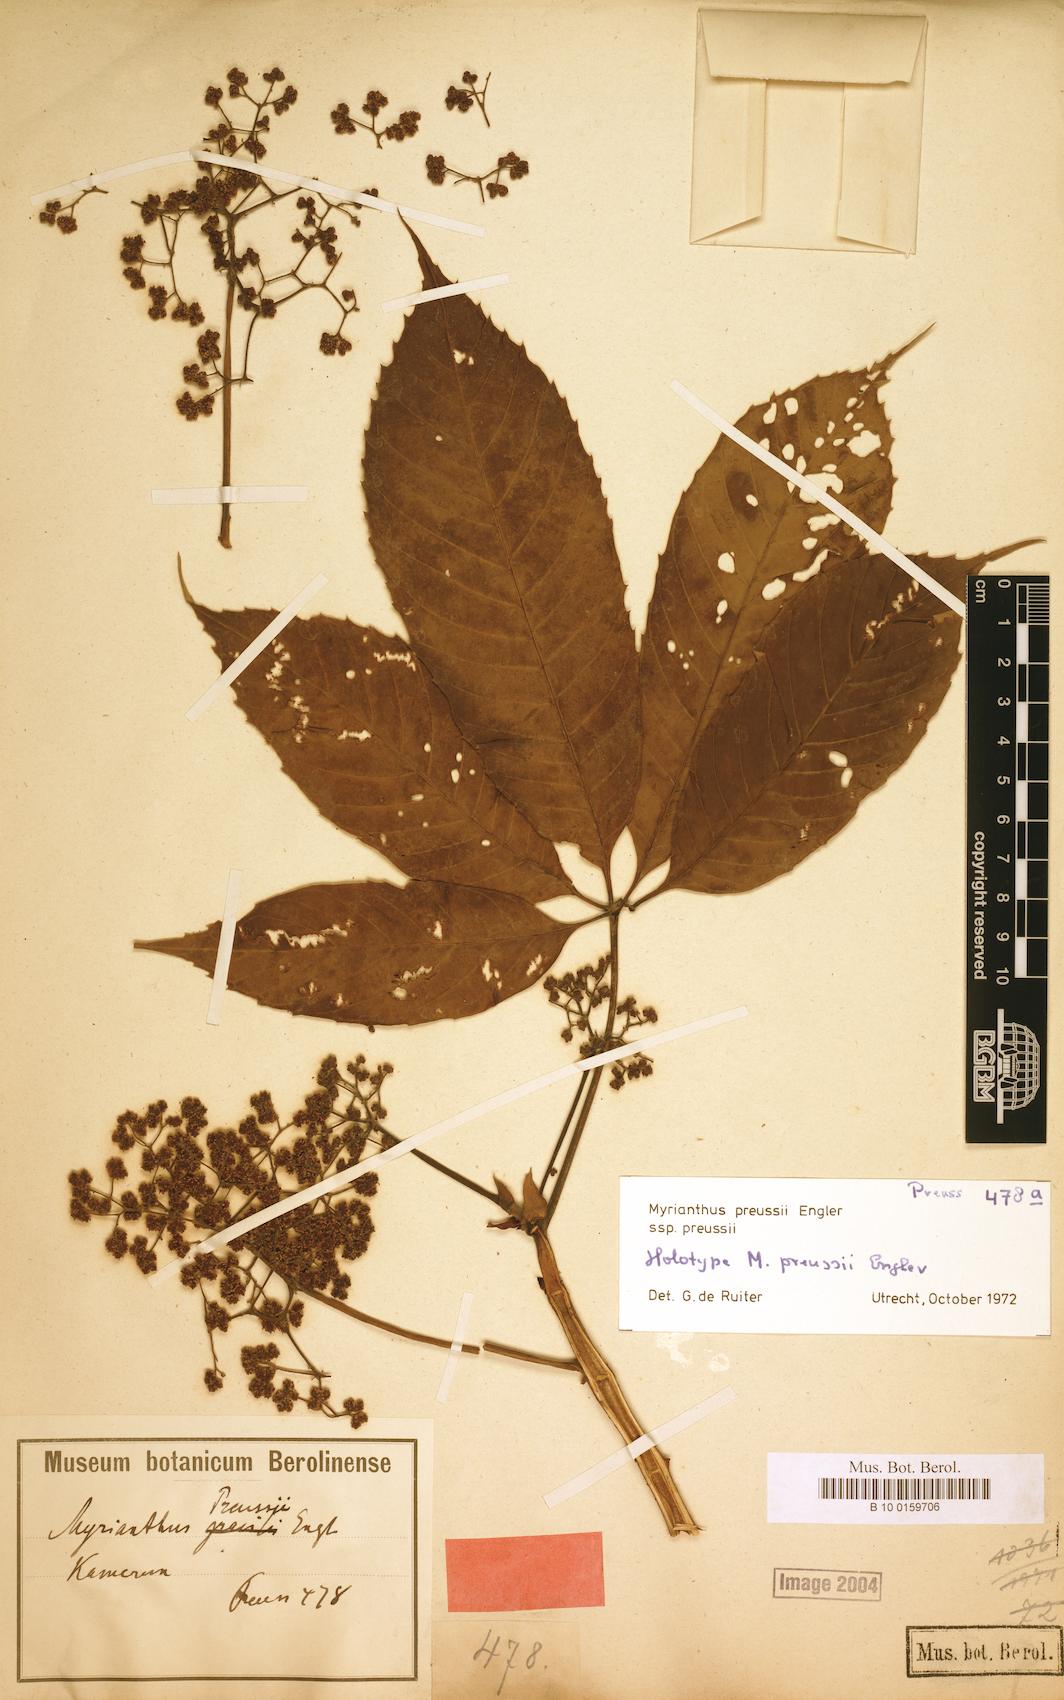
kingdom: Plantae
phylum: Tracheophyta
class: Magnoliopsida
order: Rosales
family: Urticaceae
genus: Myrianthus
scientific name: Myrianthus preussii
